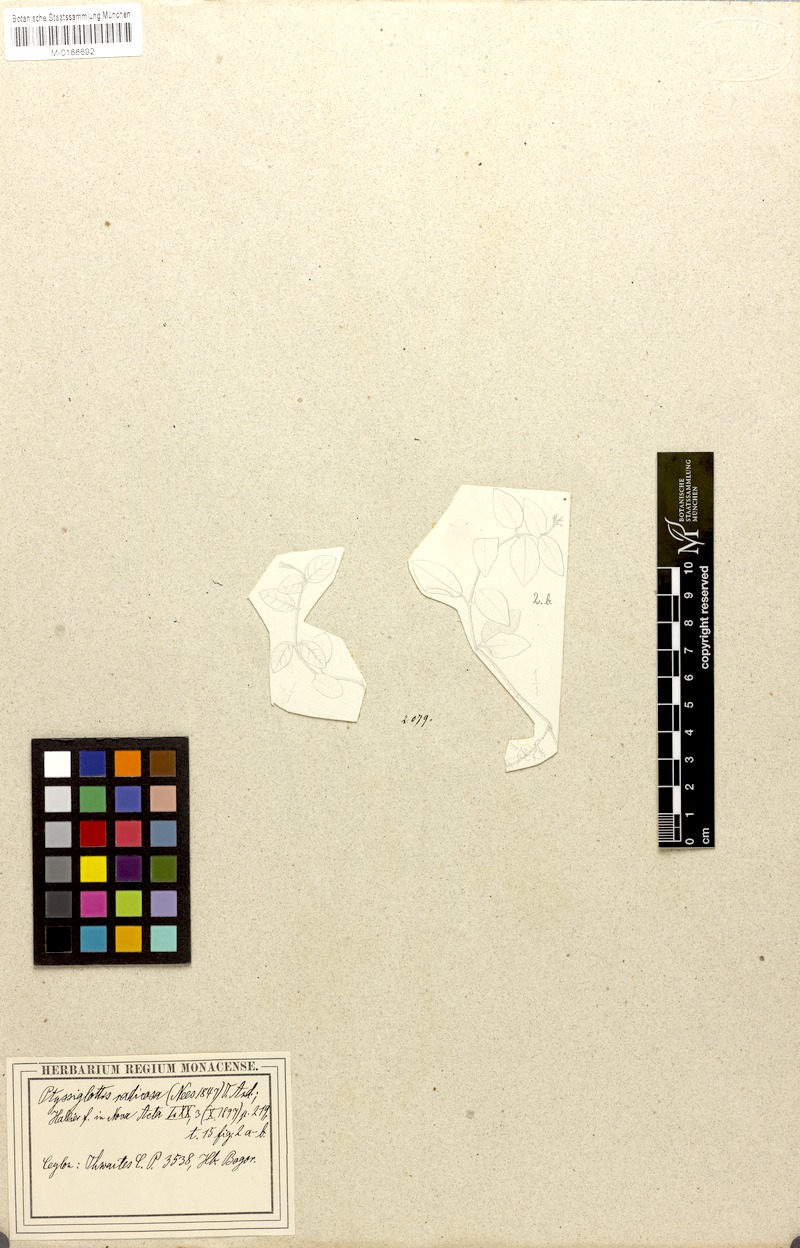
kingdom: Plantae
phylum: Tracheophyta
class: Magnoliopsida
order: Lamiales
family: Acanthaceae
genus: Ptyssiglottis
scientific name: Ptyssiglottis sanguinolenta
